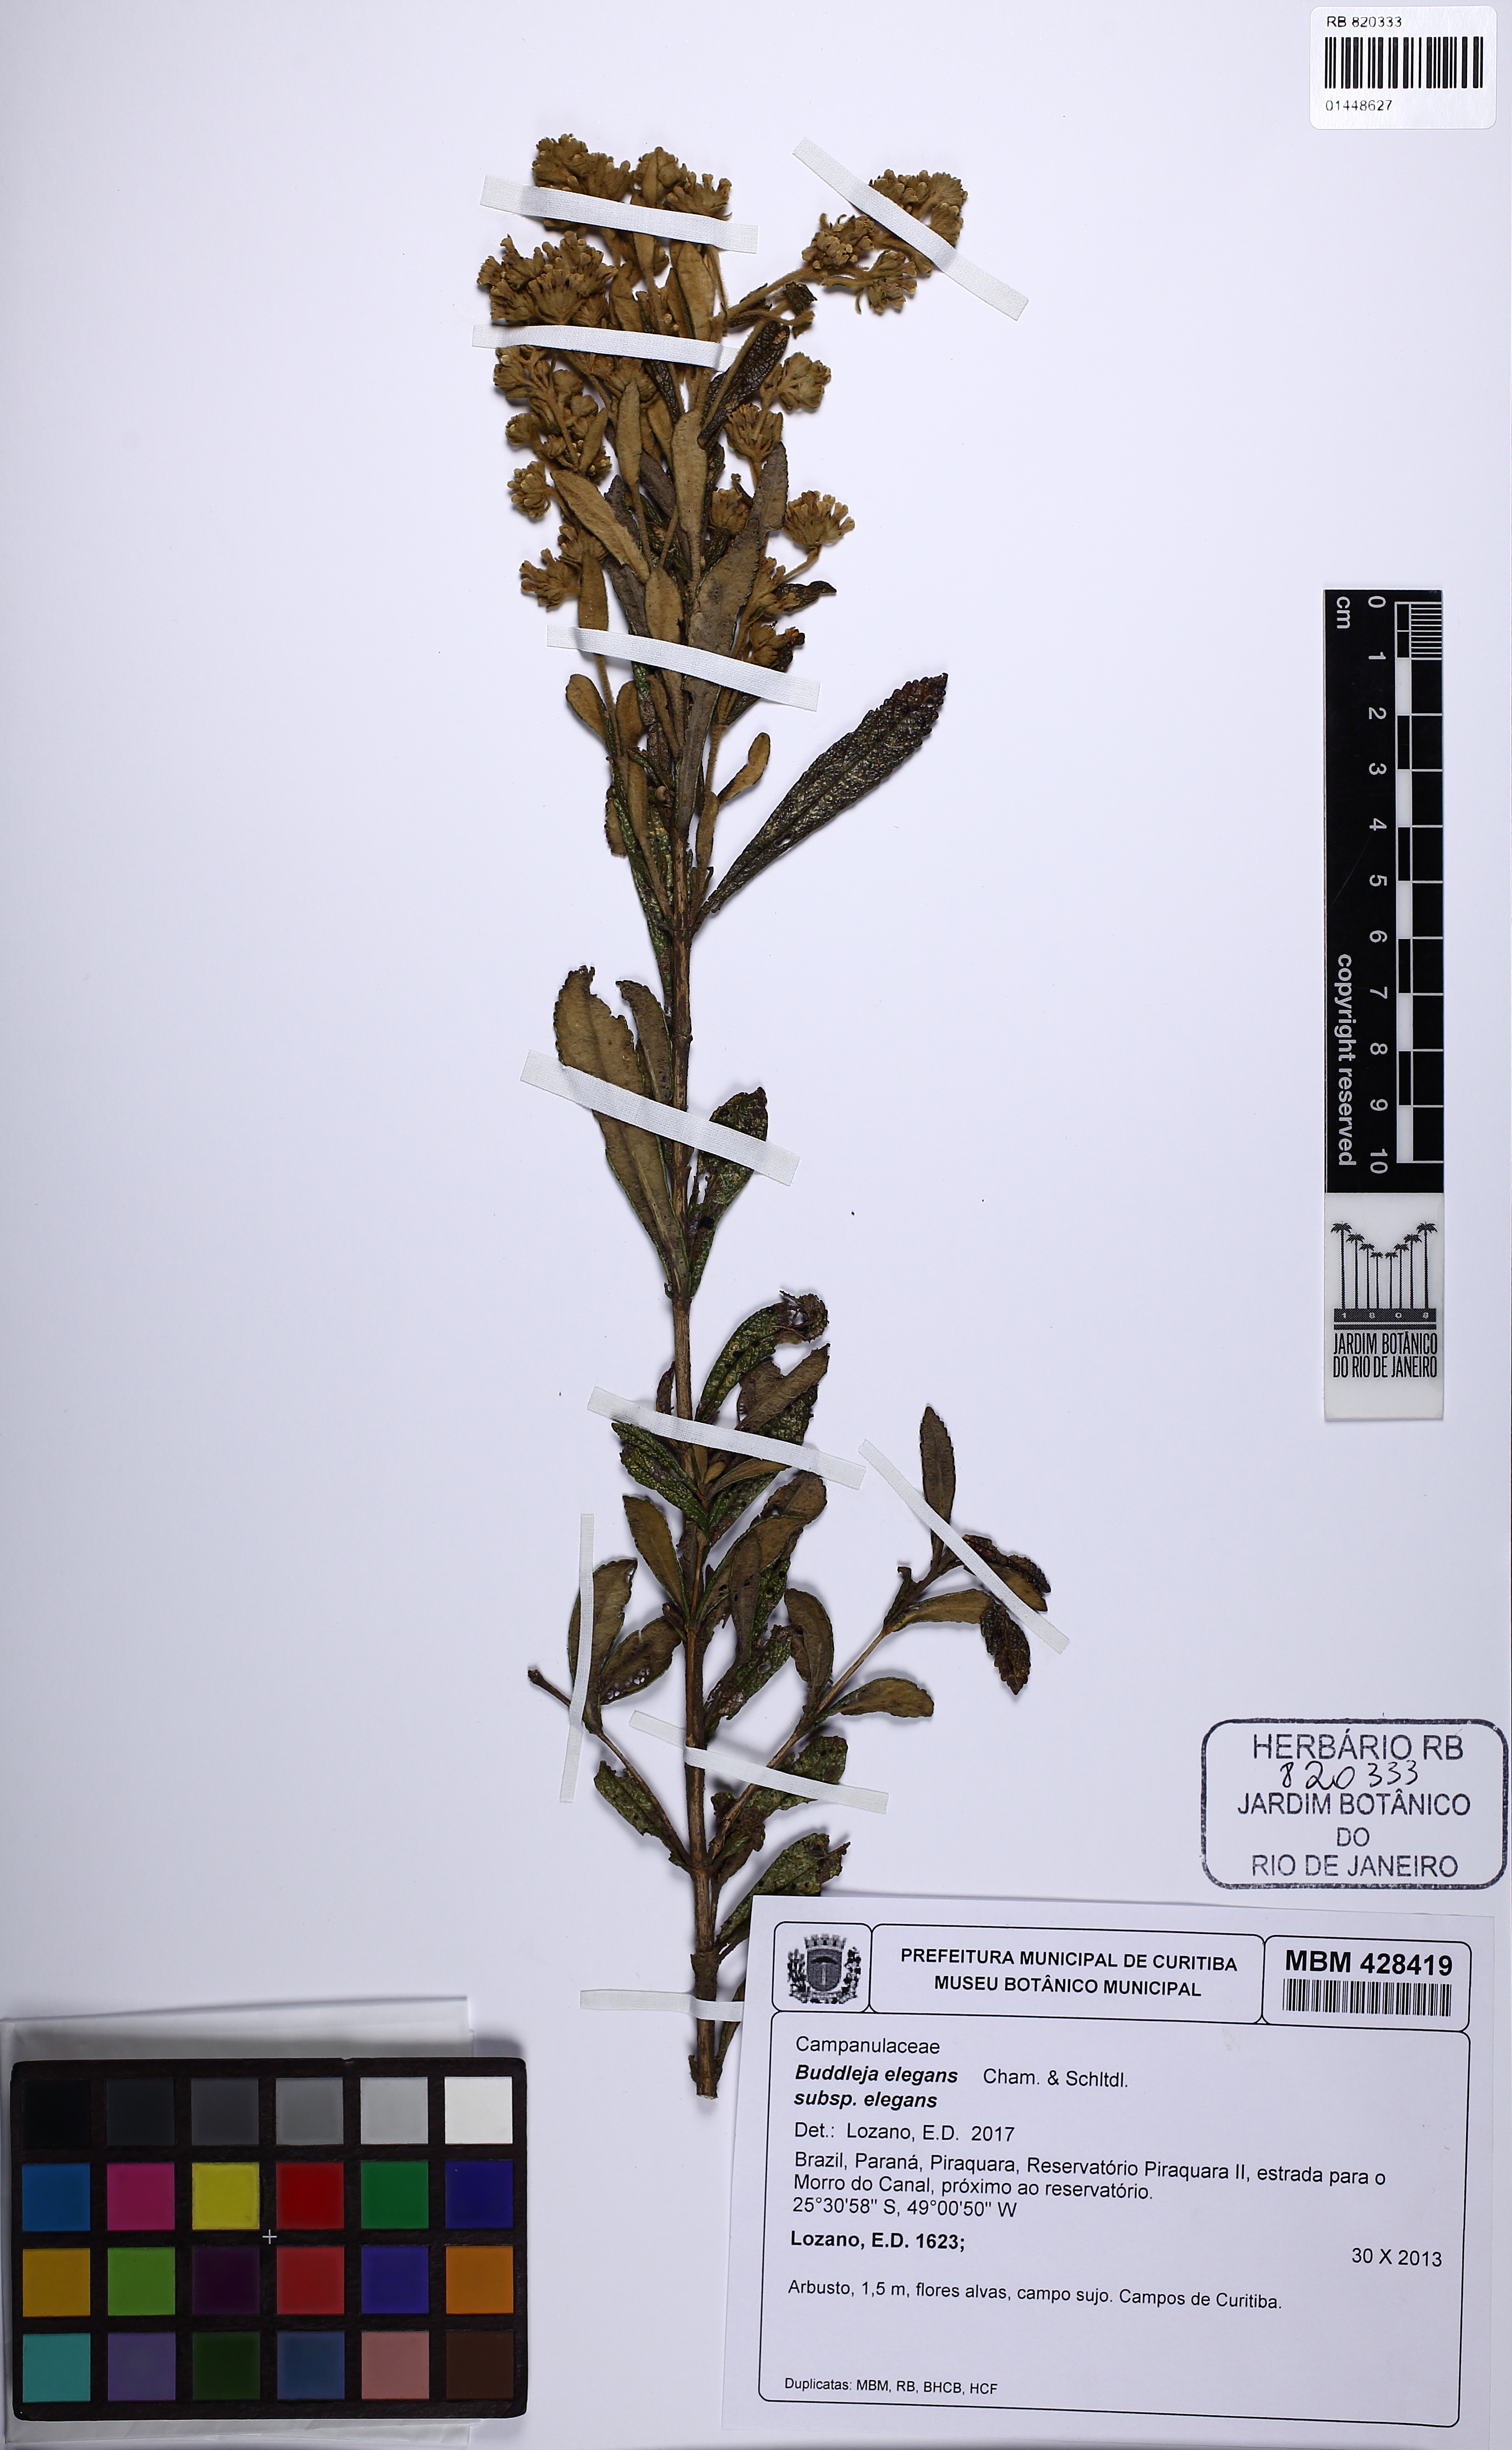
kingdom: Plantae
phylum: Tracheophyta
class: Magnoliopsida
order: Lamiales
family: Scrophulariaceae
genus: Buddleja
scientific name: Buddleja elegans
